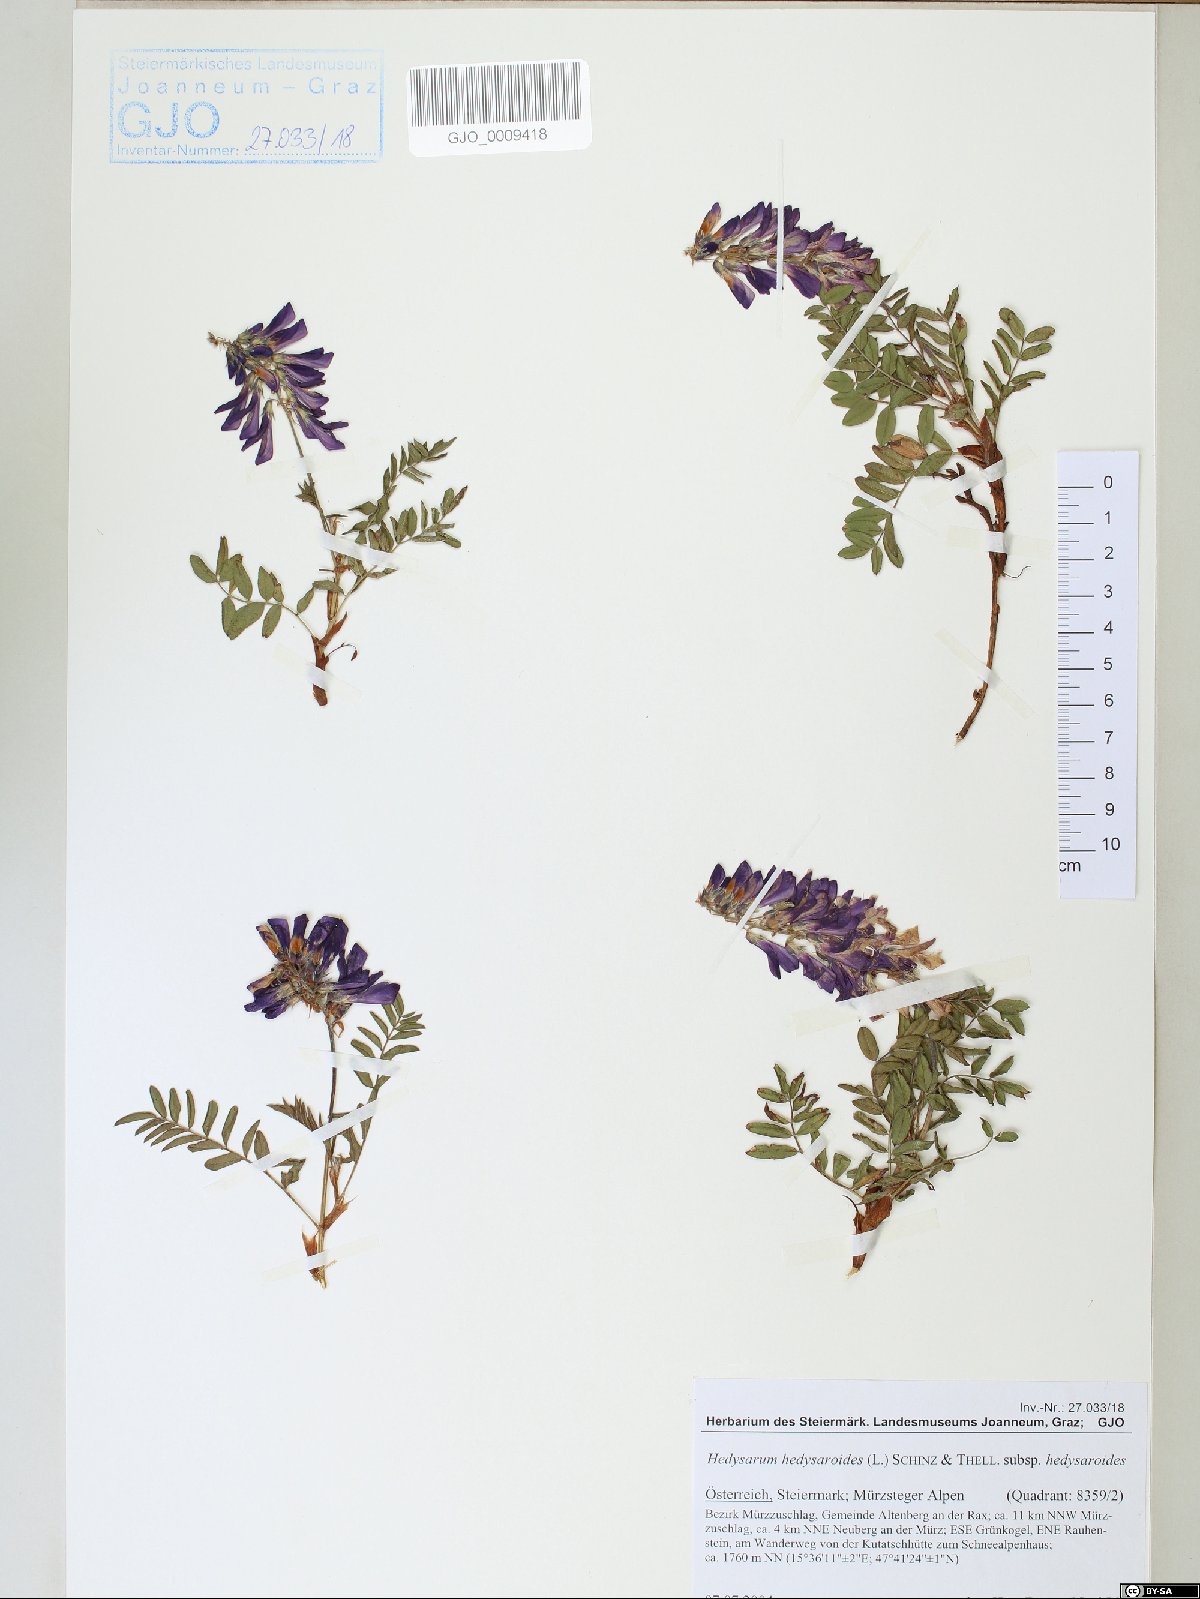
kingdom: Plantae
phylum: Tracheophyta
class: Magnoliopsida
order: Fabales
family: Fabaceae
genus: Hedysarum
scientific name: Hedysarum hedysaroides
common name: Alpine french-honeysuckle
